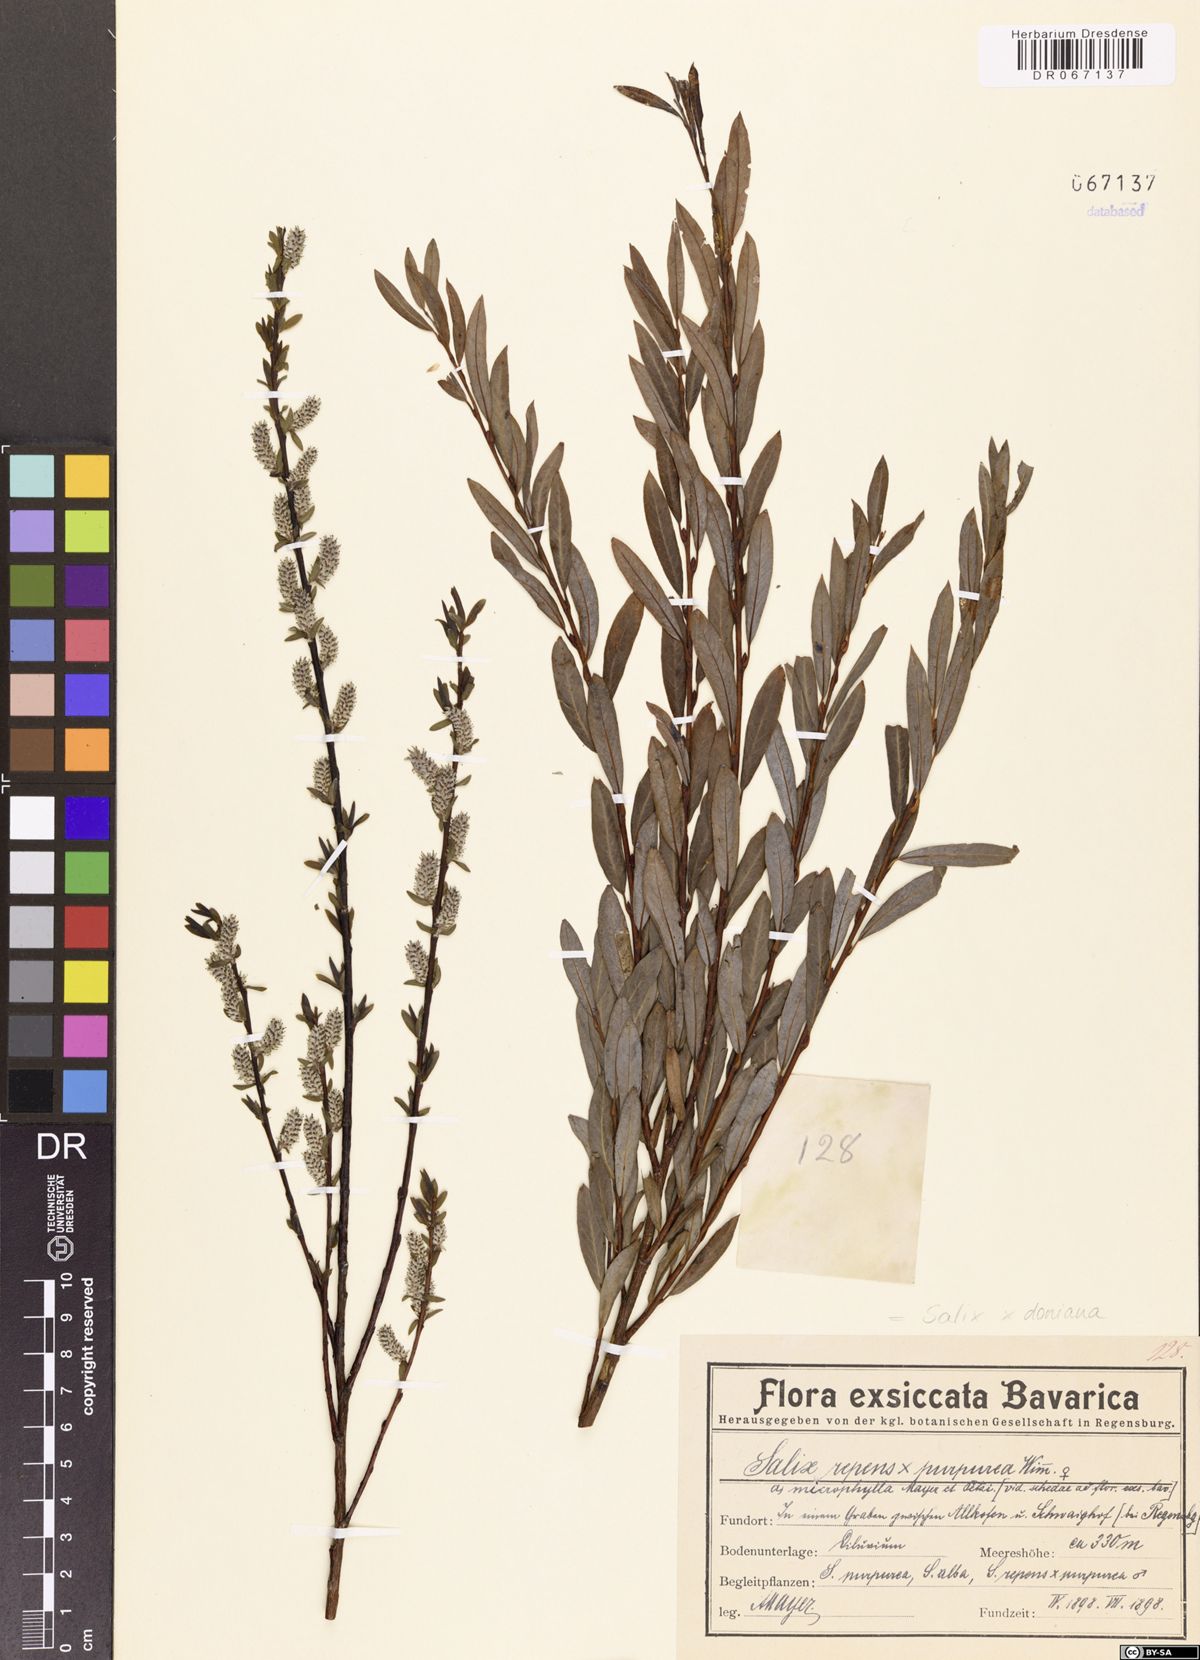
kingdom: Plantae
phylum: Tracheophyta
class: Magnoliopsida
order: Malpighiales
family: Salicaceae
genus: Salix
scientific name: Salix doniana
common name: Donian willow
